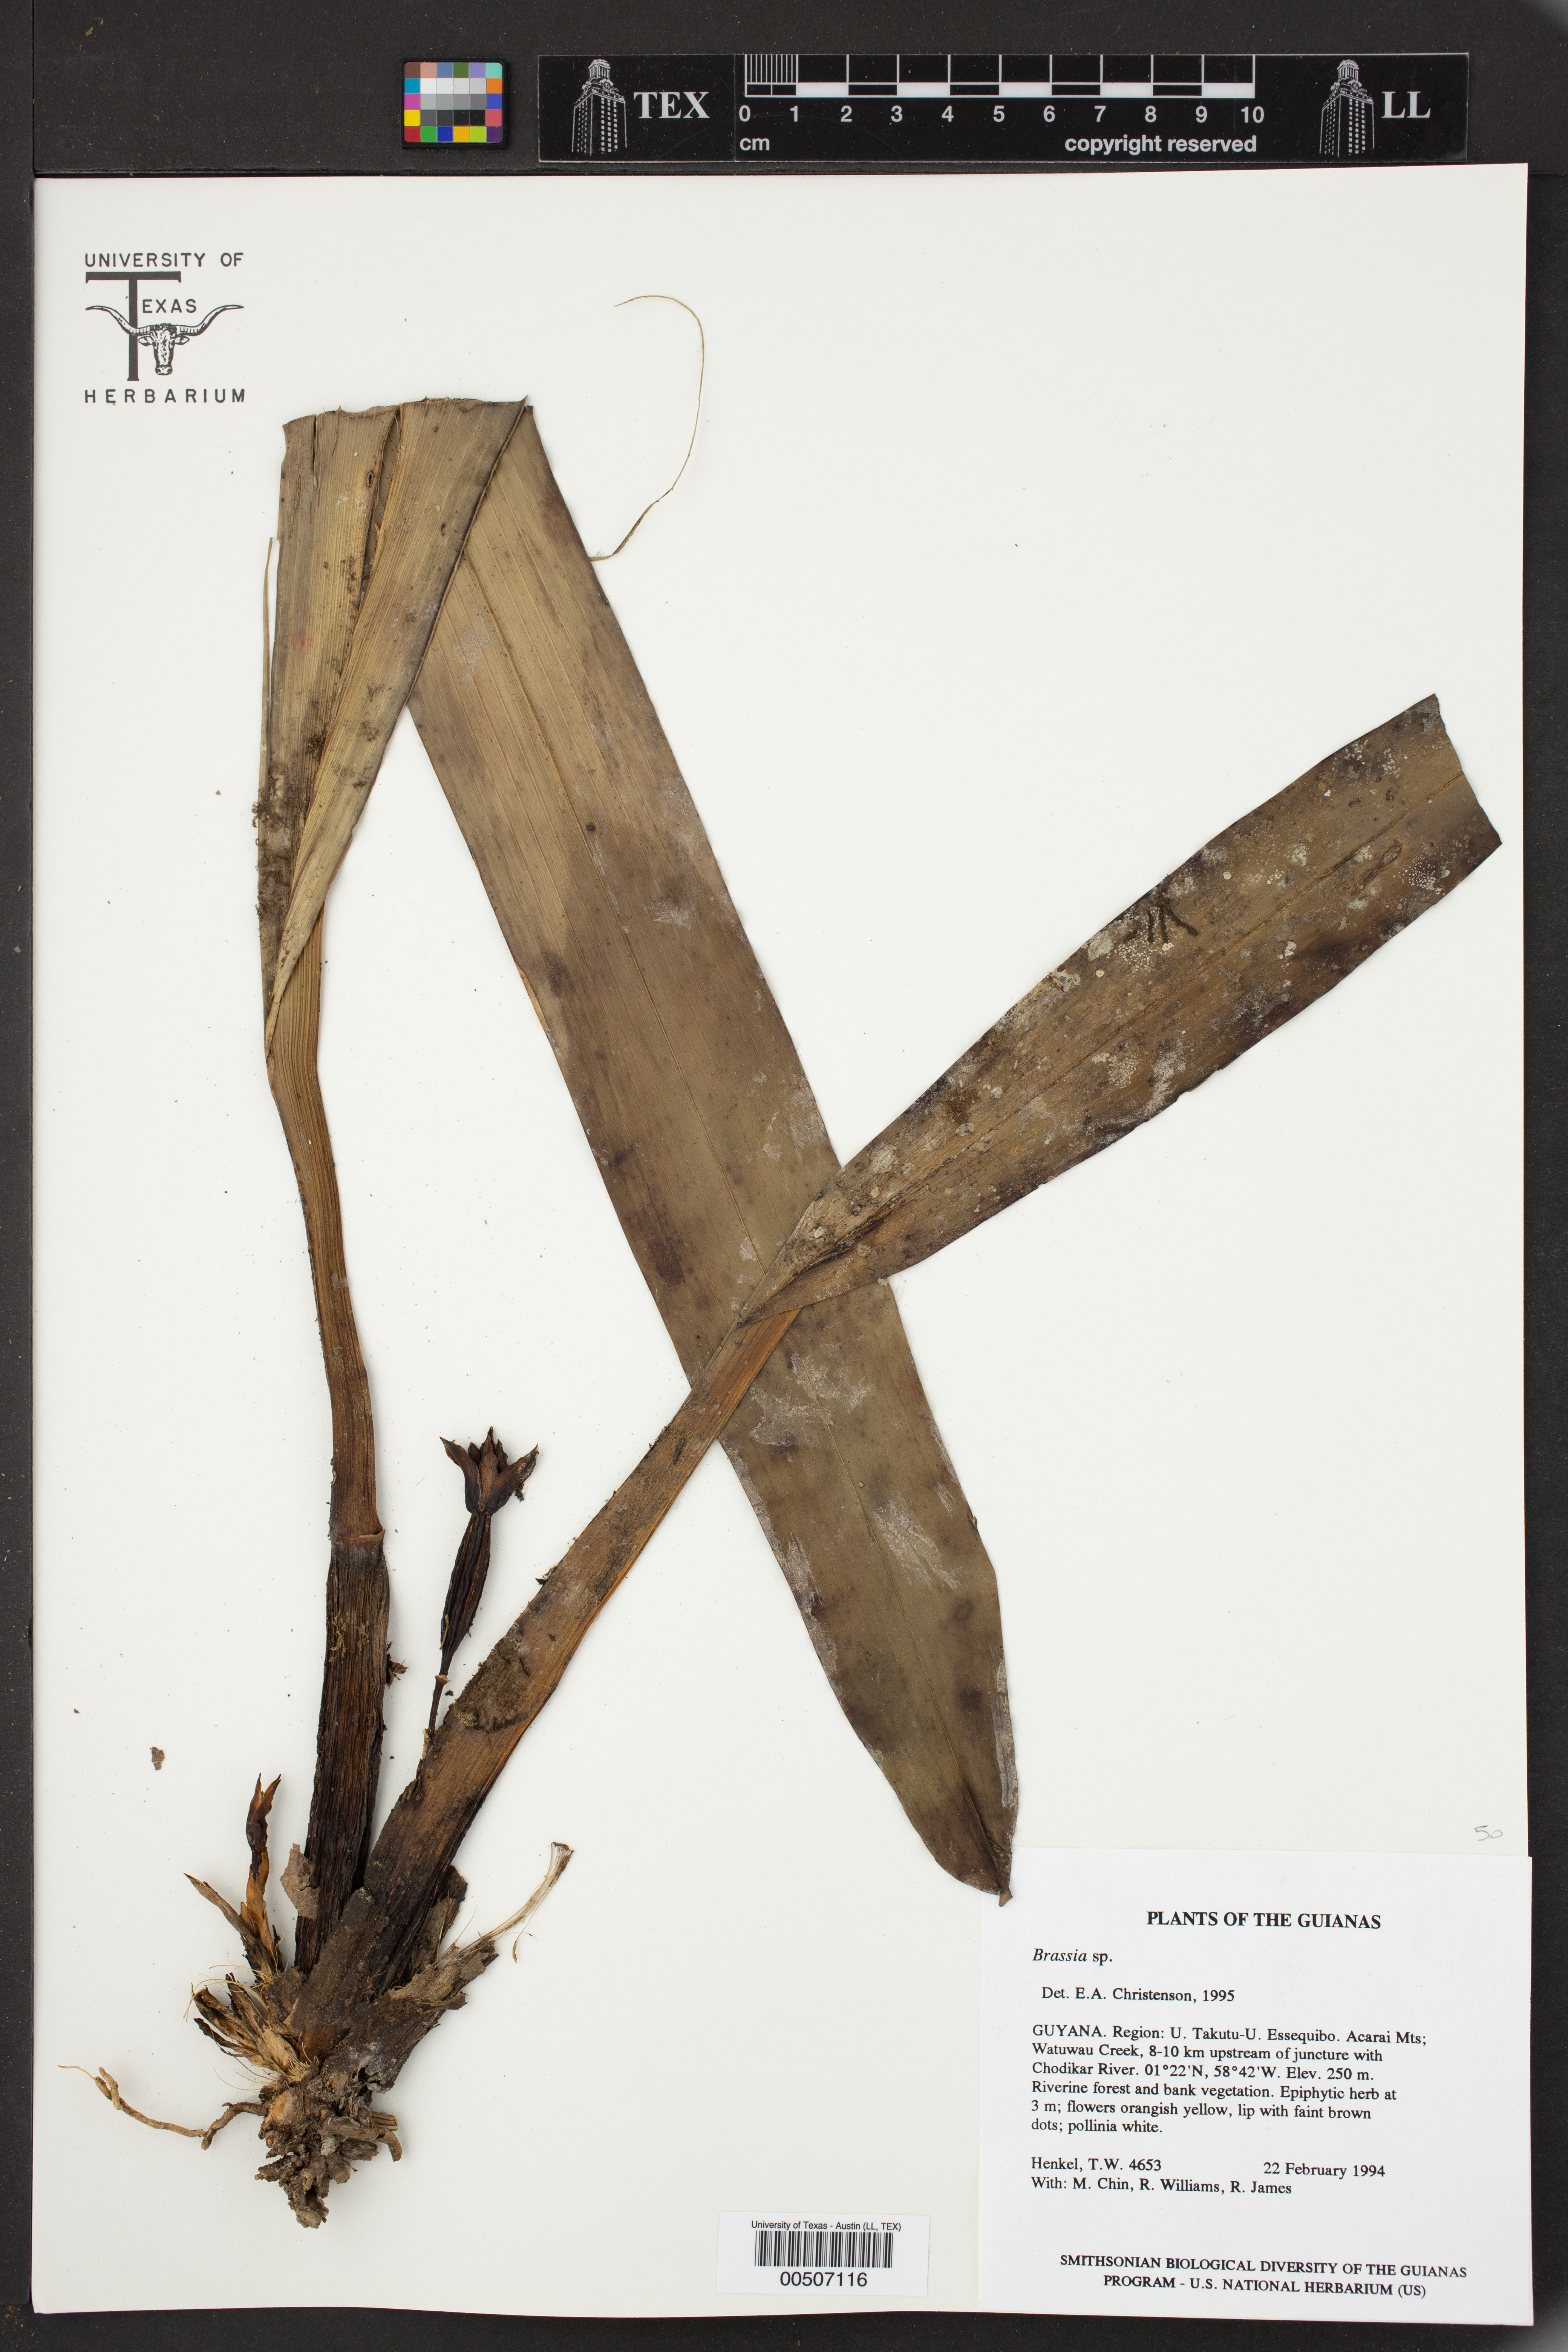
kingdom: Plantae
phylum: Tracheophyta
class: Liliopsida
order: Asparagales
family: Orchidaceae
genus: Brassia
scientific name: Brassia
